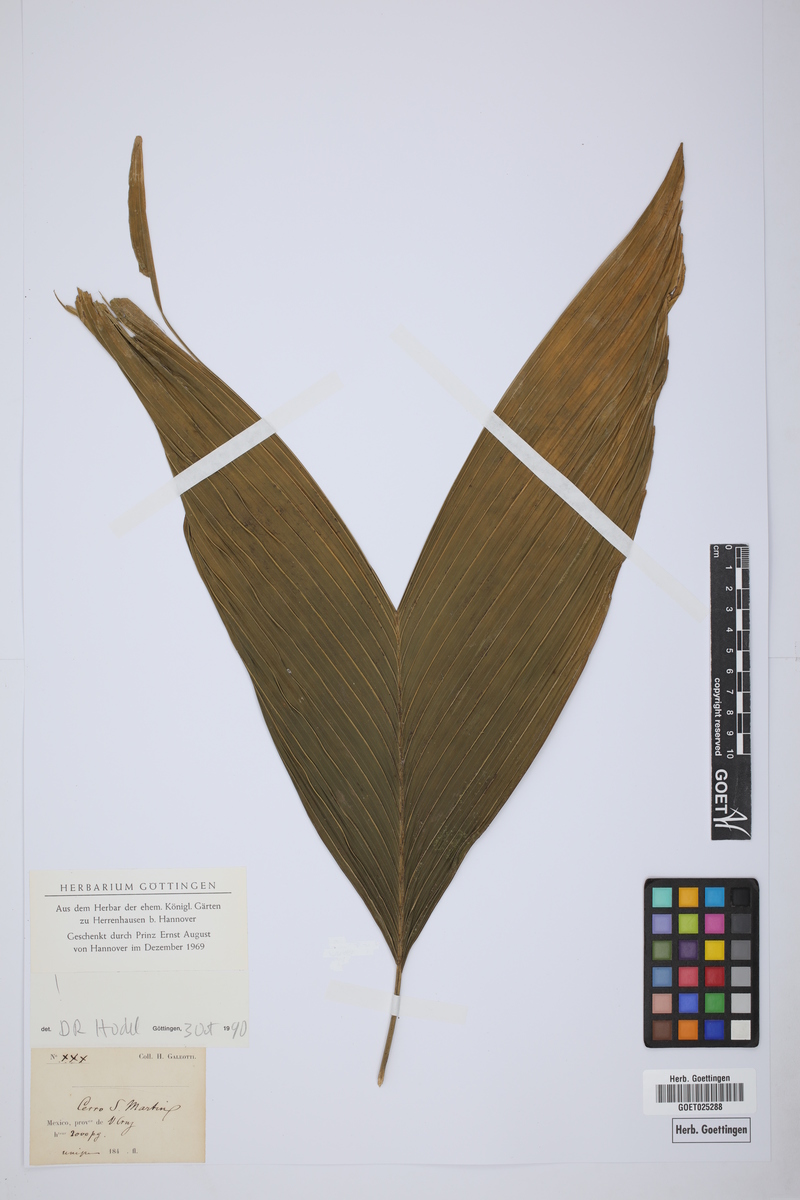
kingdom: Plantae
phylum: Tracheophyta
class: Liliopsida
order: Arecales
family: Arecaceae
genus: Chamaedorea
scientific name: Chamaedorea ernesti-augusti
